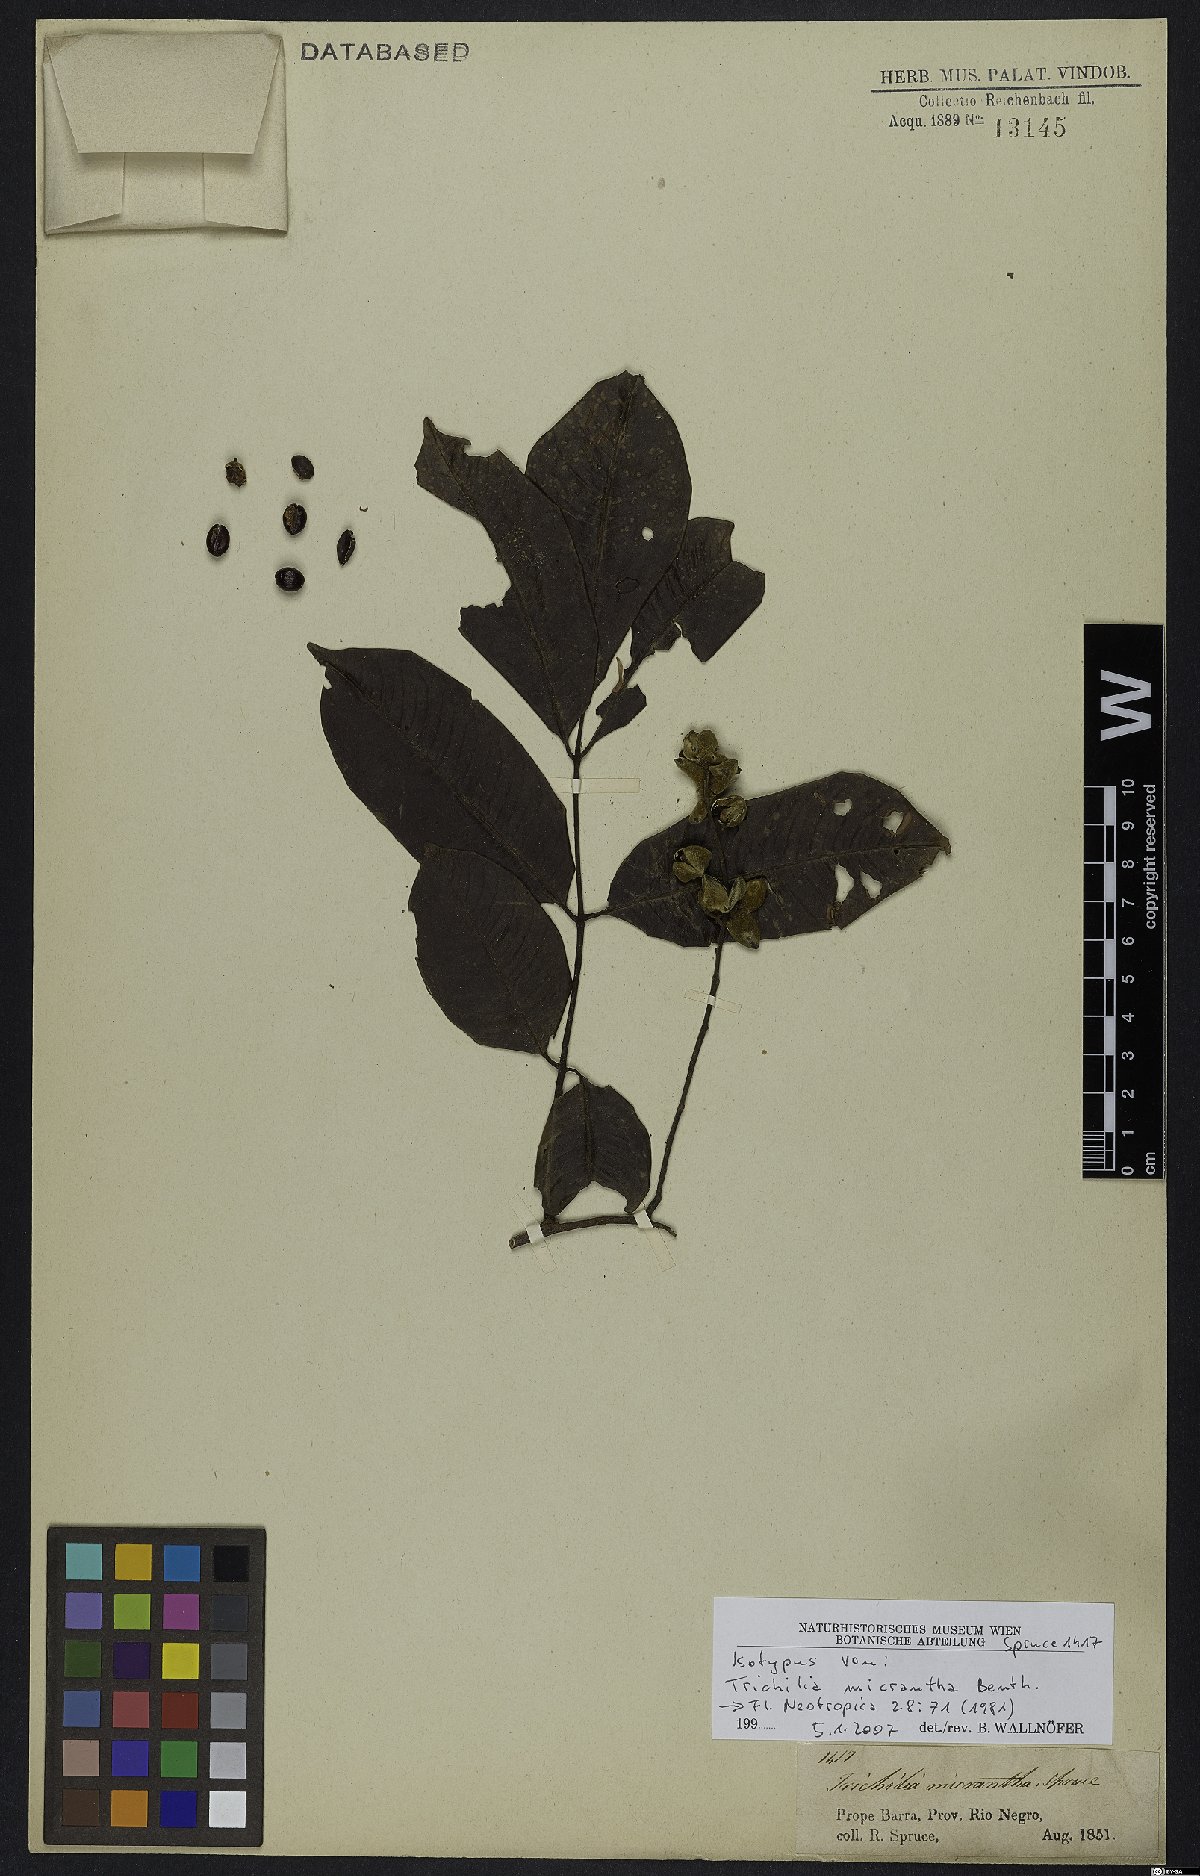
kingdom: Plantae
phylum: Tracheophyta
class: Magnoliopsida
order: Sapindales
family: Meliaceae
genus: Trichilia
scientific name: Trichilia micrantha
